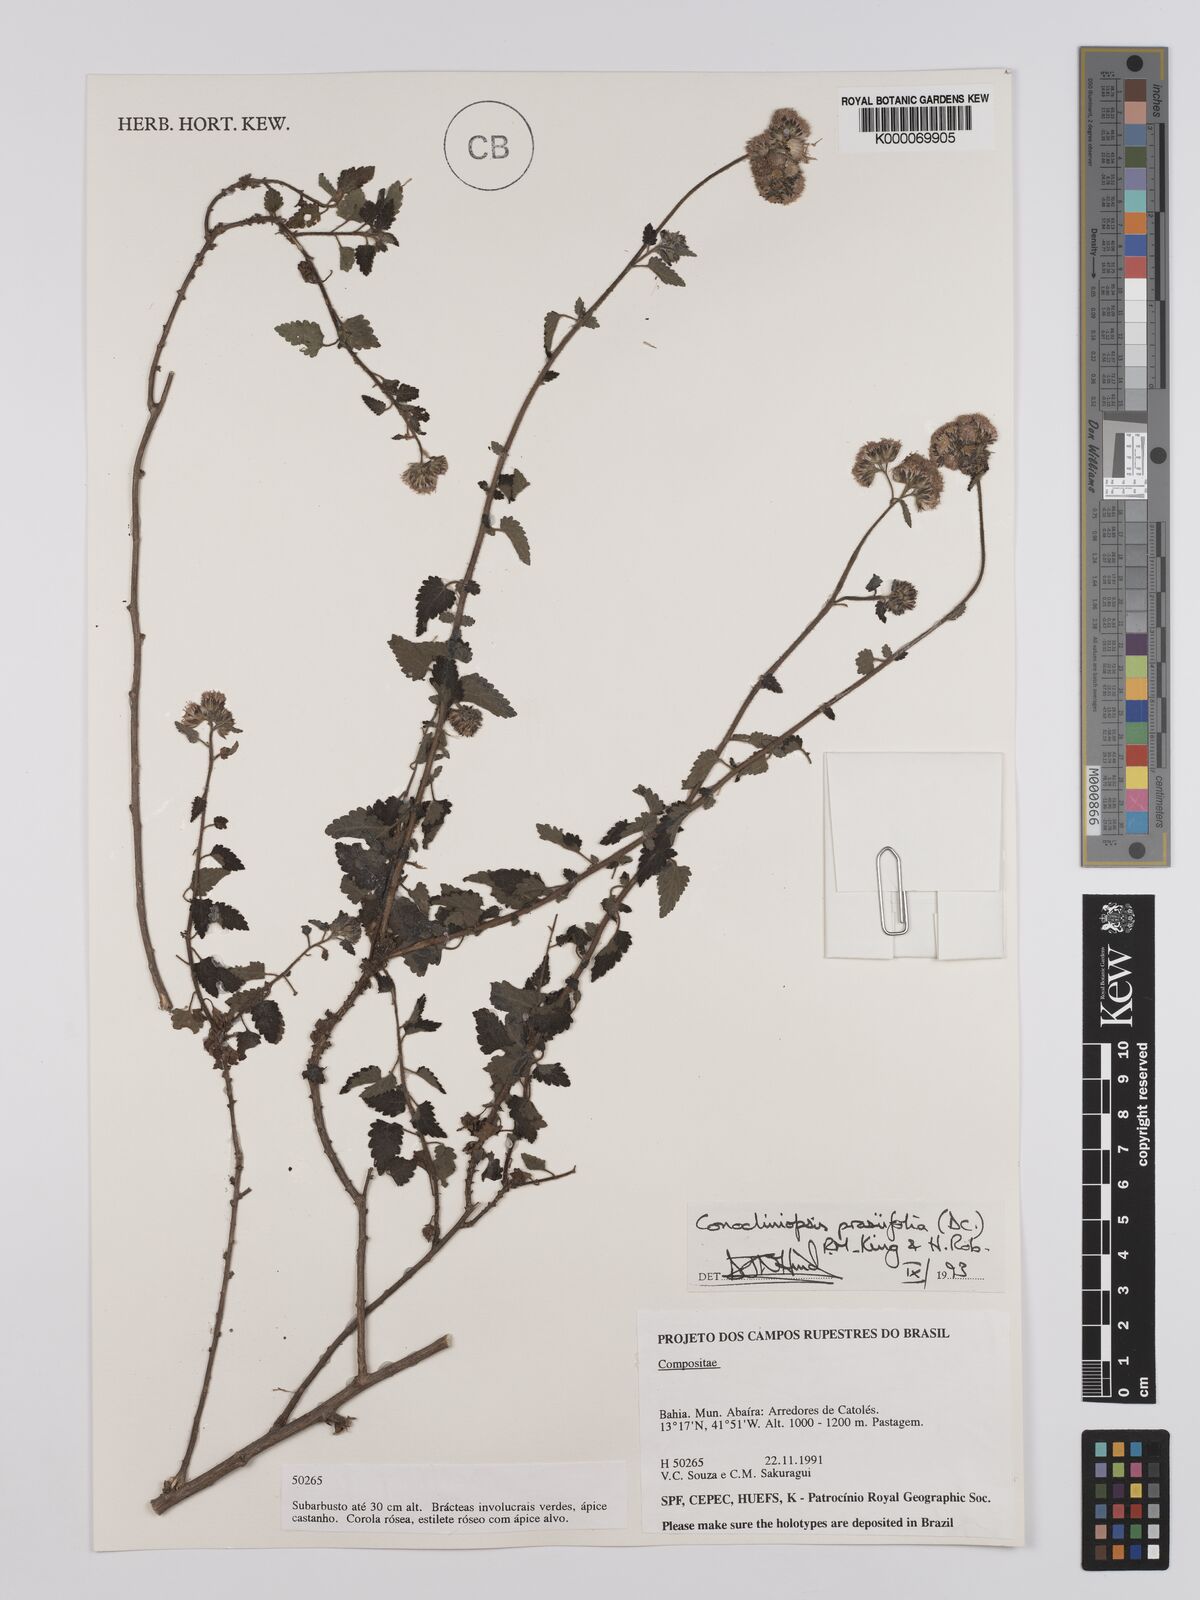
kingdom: Plantae
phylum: Tracheophyta
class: Magnoliopsida
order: Asterales
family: Asteraceae
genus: Conocliniopsis
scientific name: Conocliniopsis grossedentata
